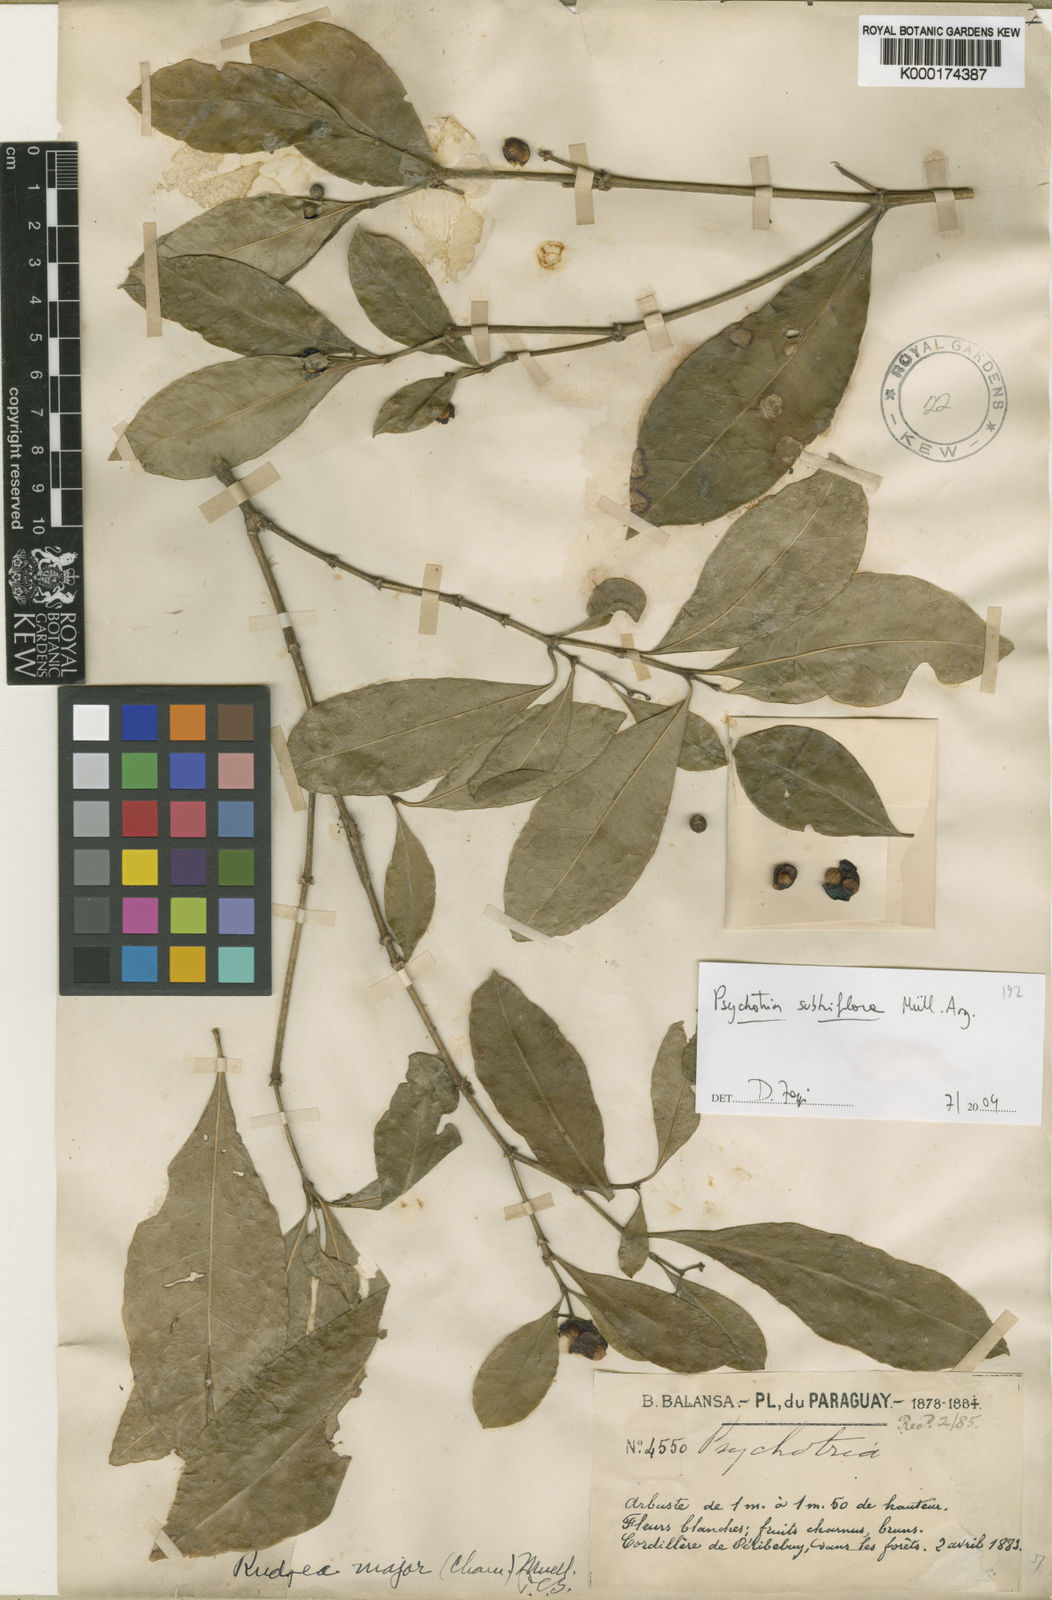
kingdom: Plantae
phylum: Tracheophyta
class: Magnoliopsida
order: Gentianales
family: Rubiaceae
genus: Eumachia
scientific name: Eumachia chaenotricha
